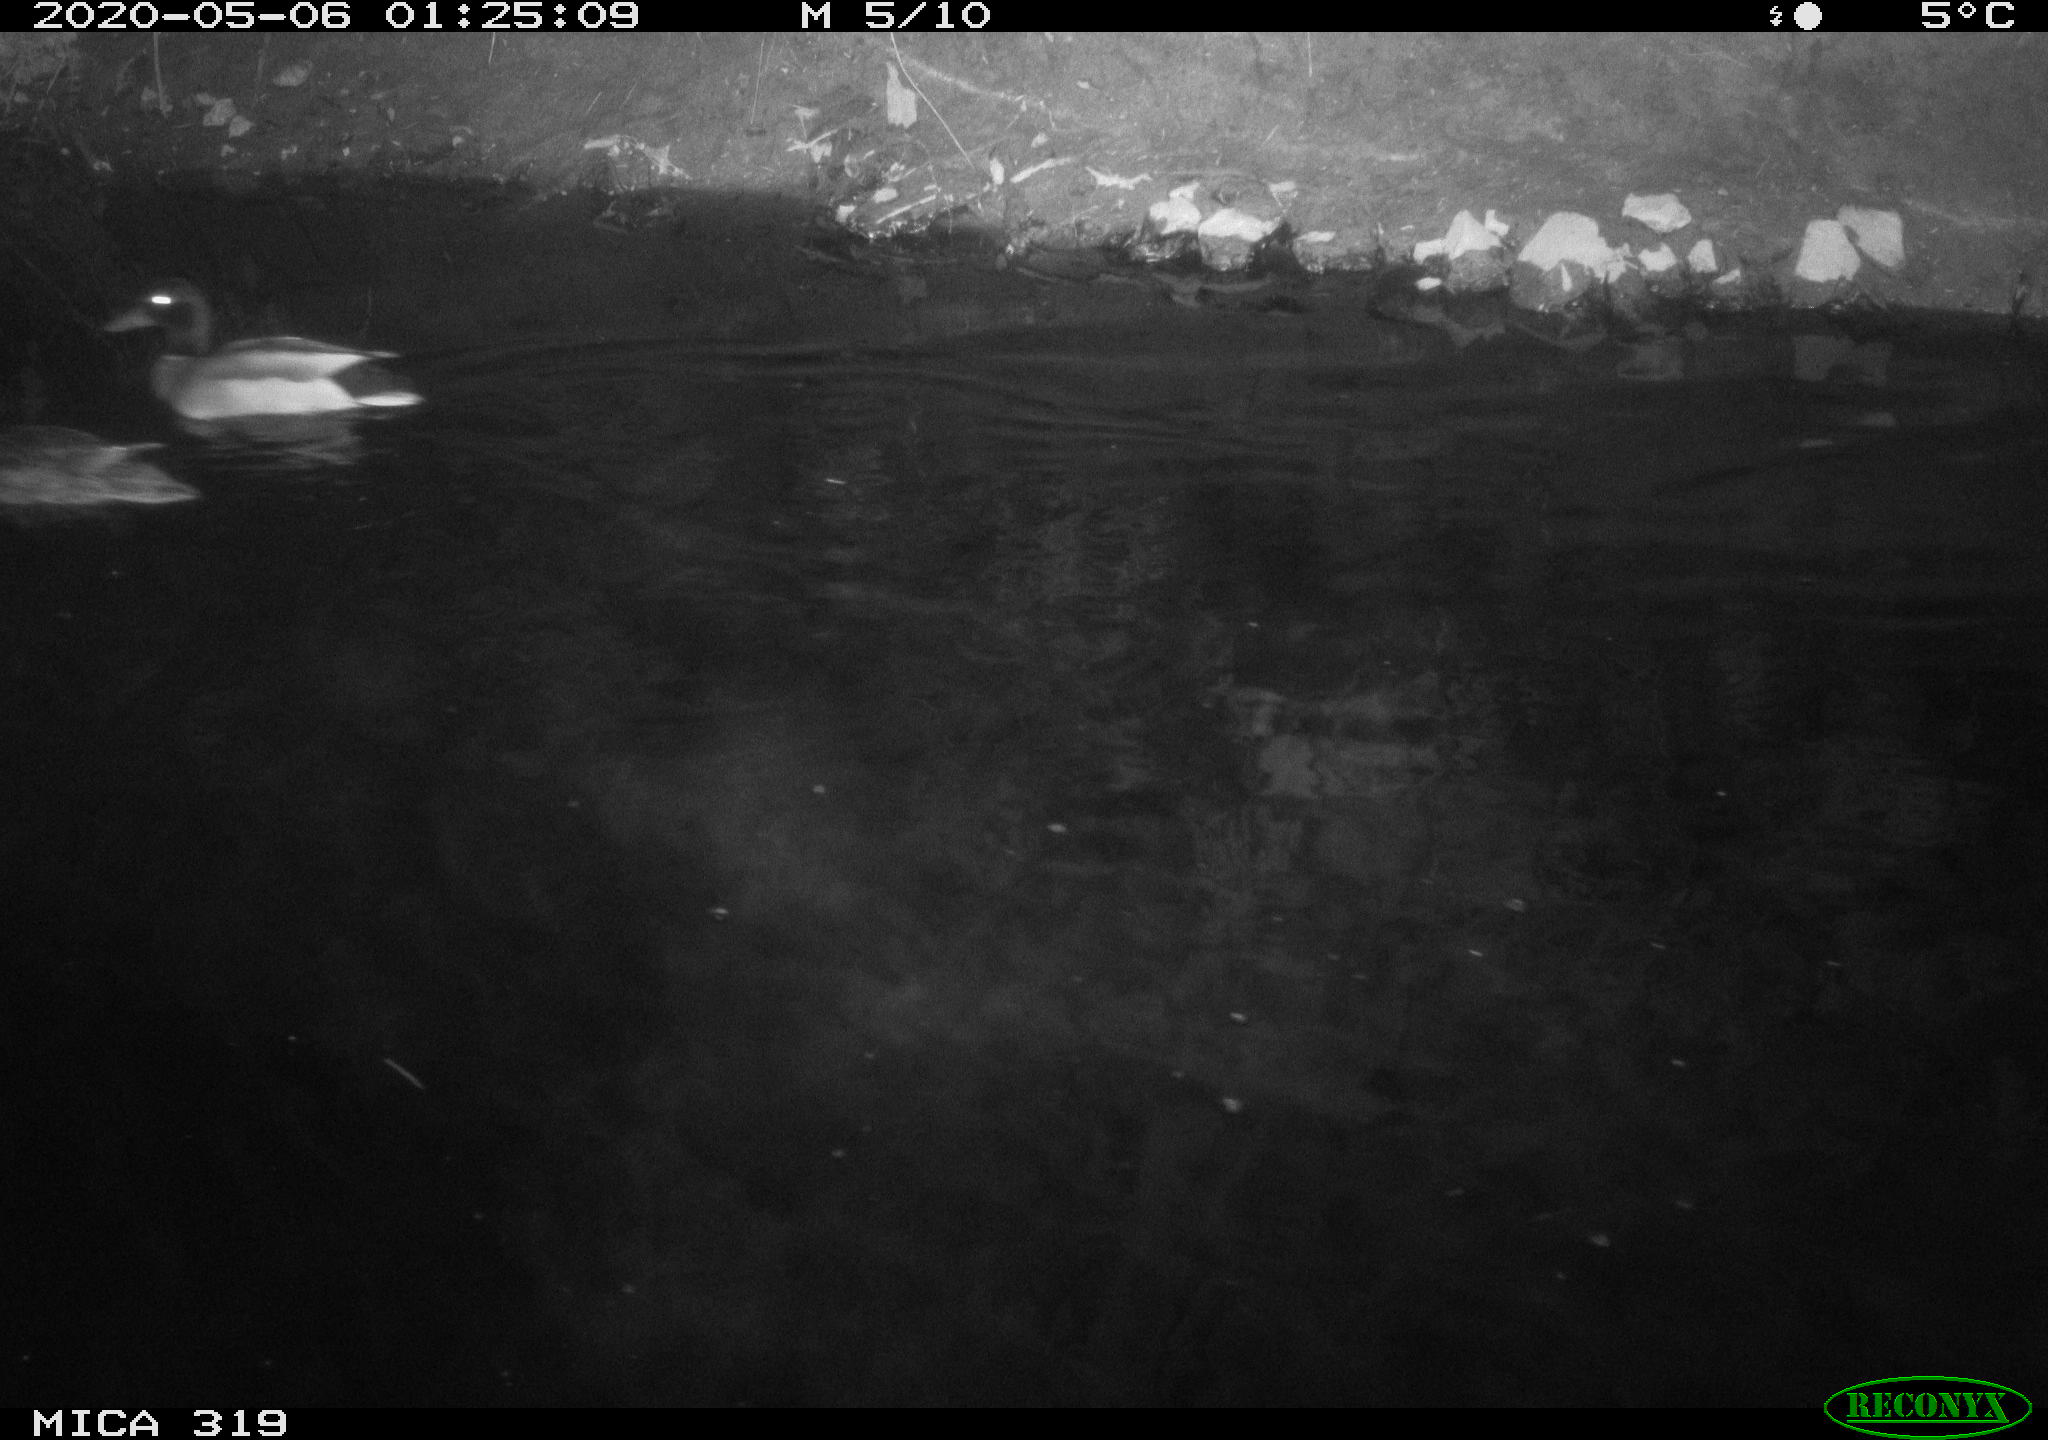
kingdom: Animalia
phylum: Chordata
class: Aves
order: Anseriformes
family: Anatidae
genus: Anas
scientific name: Anas platyrhynchos
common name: Mallard
